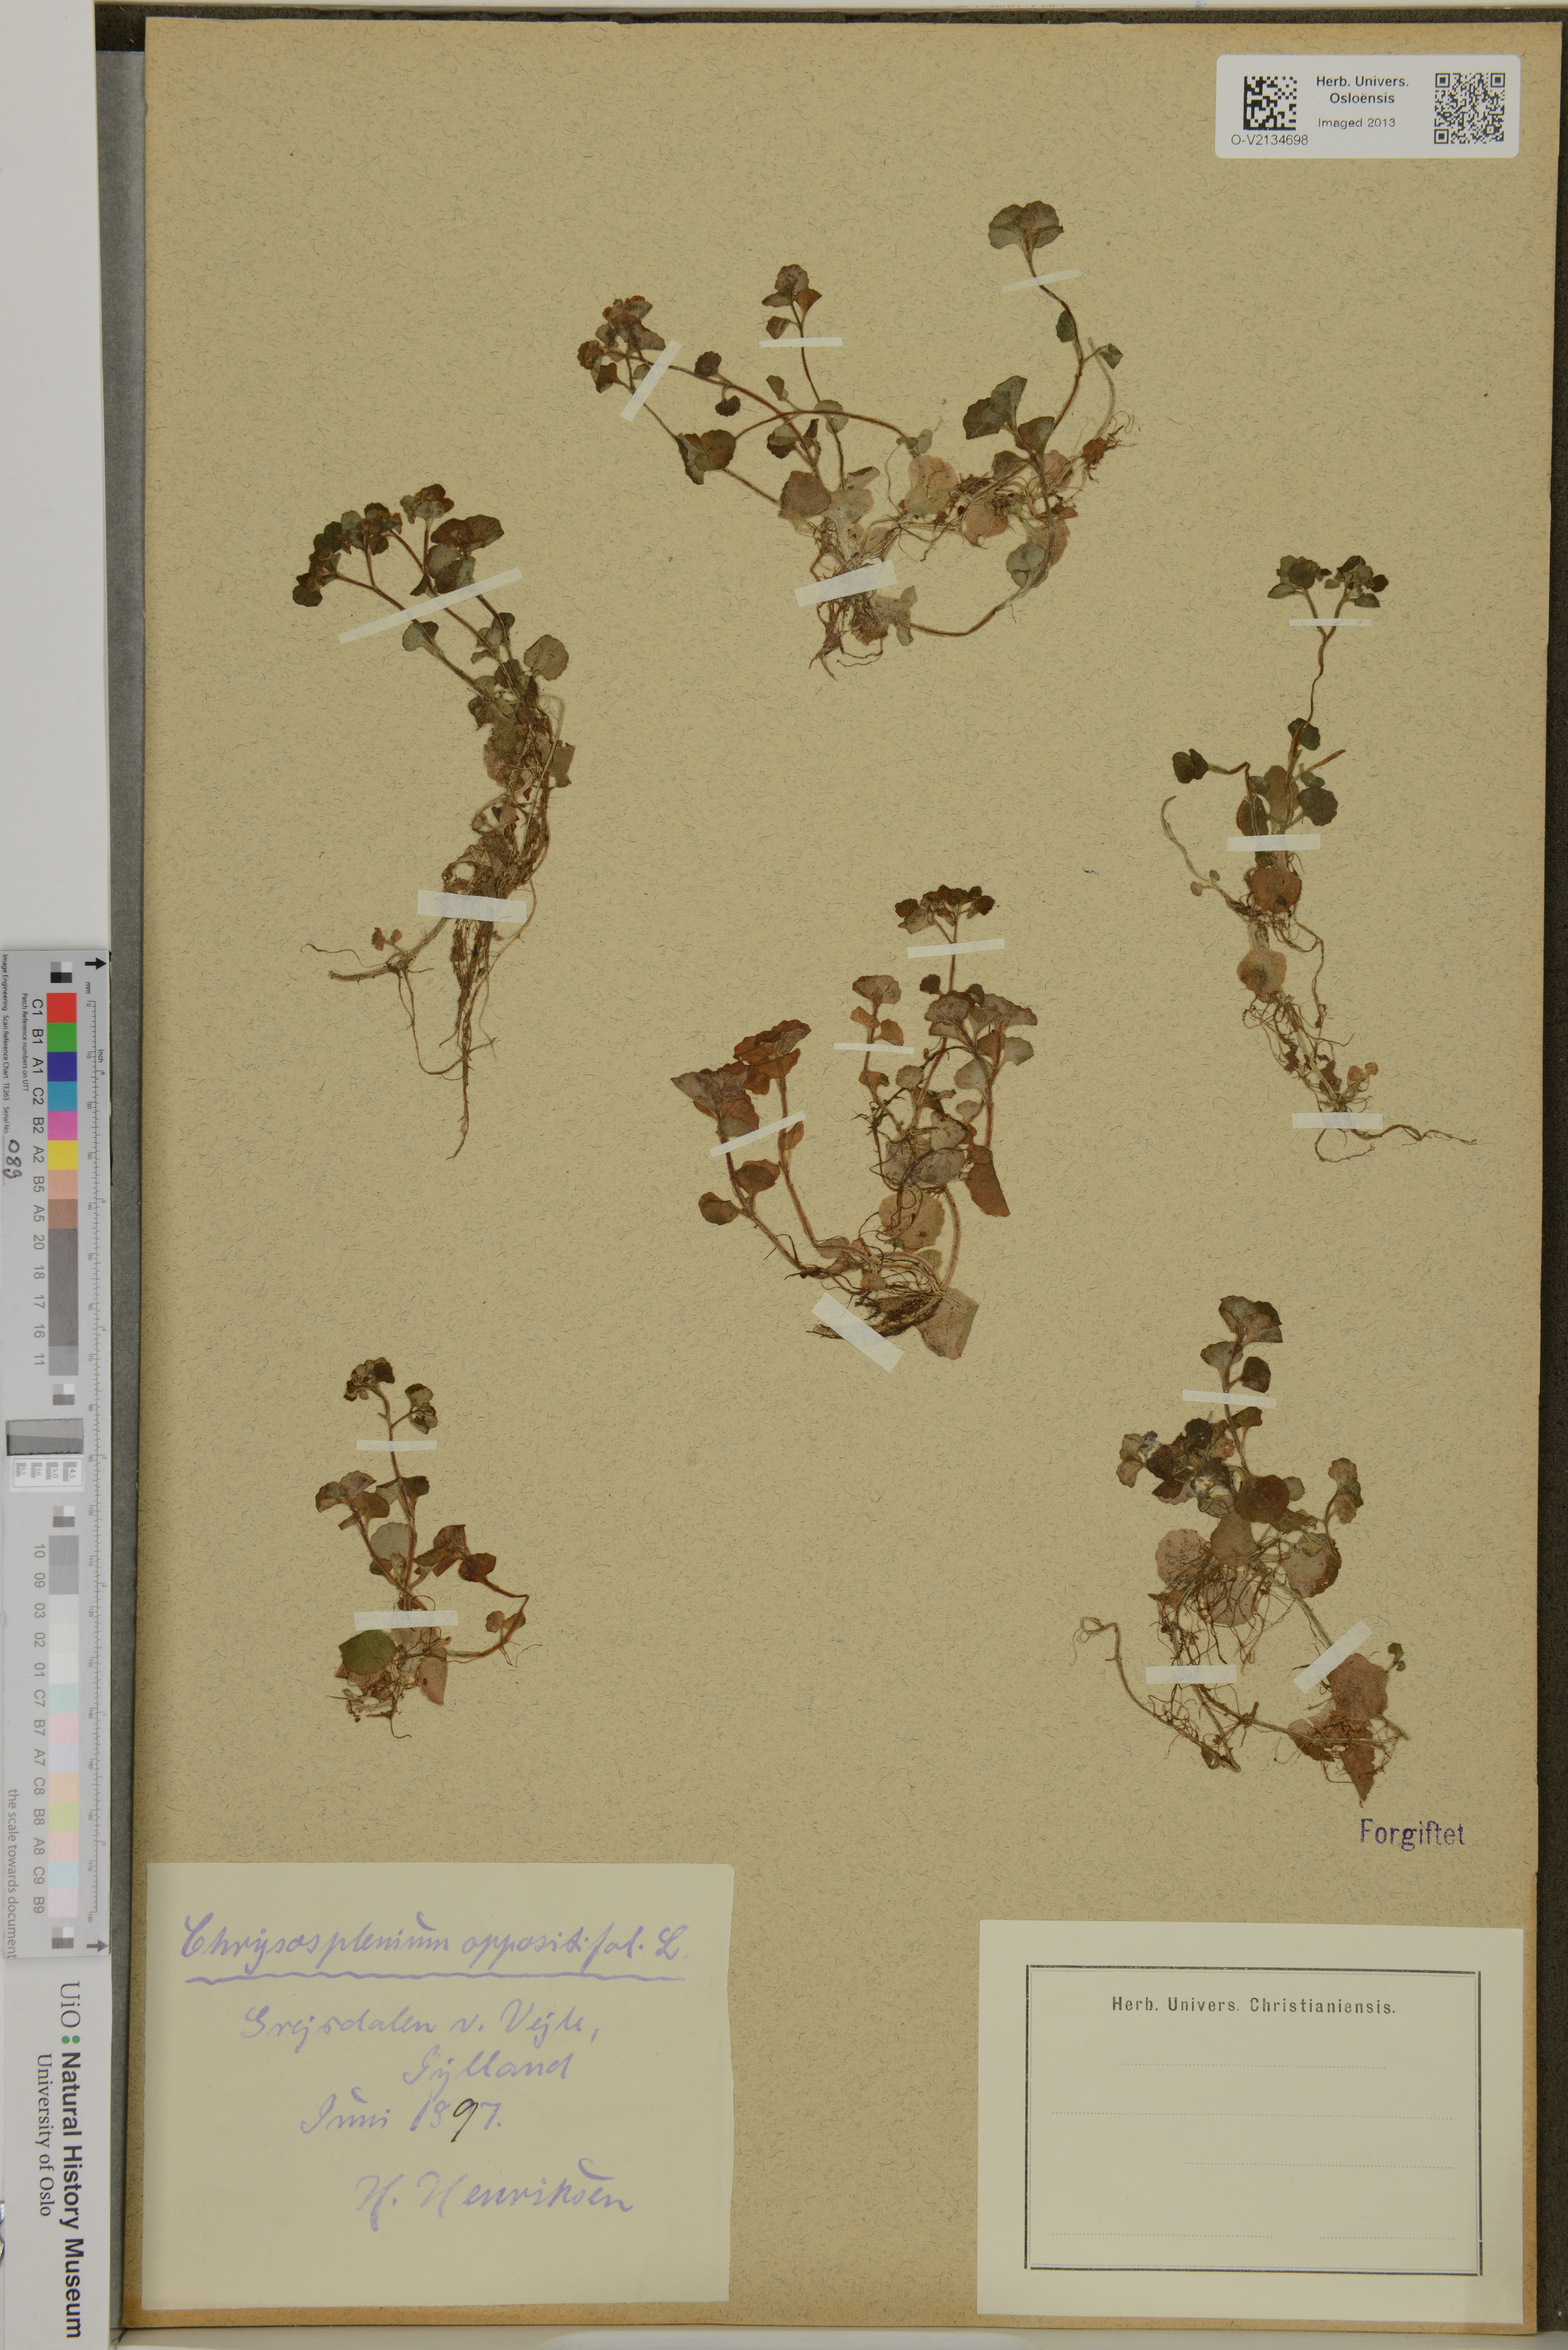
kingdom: Plantae
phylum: Tracheophyta
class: Magnoliopsida
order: Saxifragales
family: Saxifragaceae
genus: Chrysosplenium
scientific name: Chrysosplenium oppositifolium
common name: Opposite-leaved golden-saxifrage
